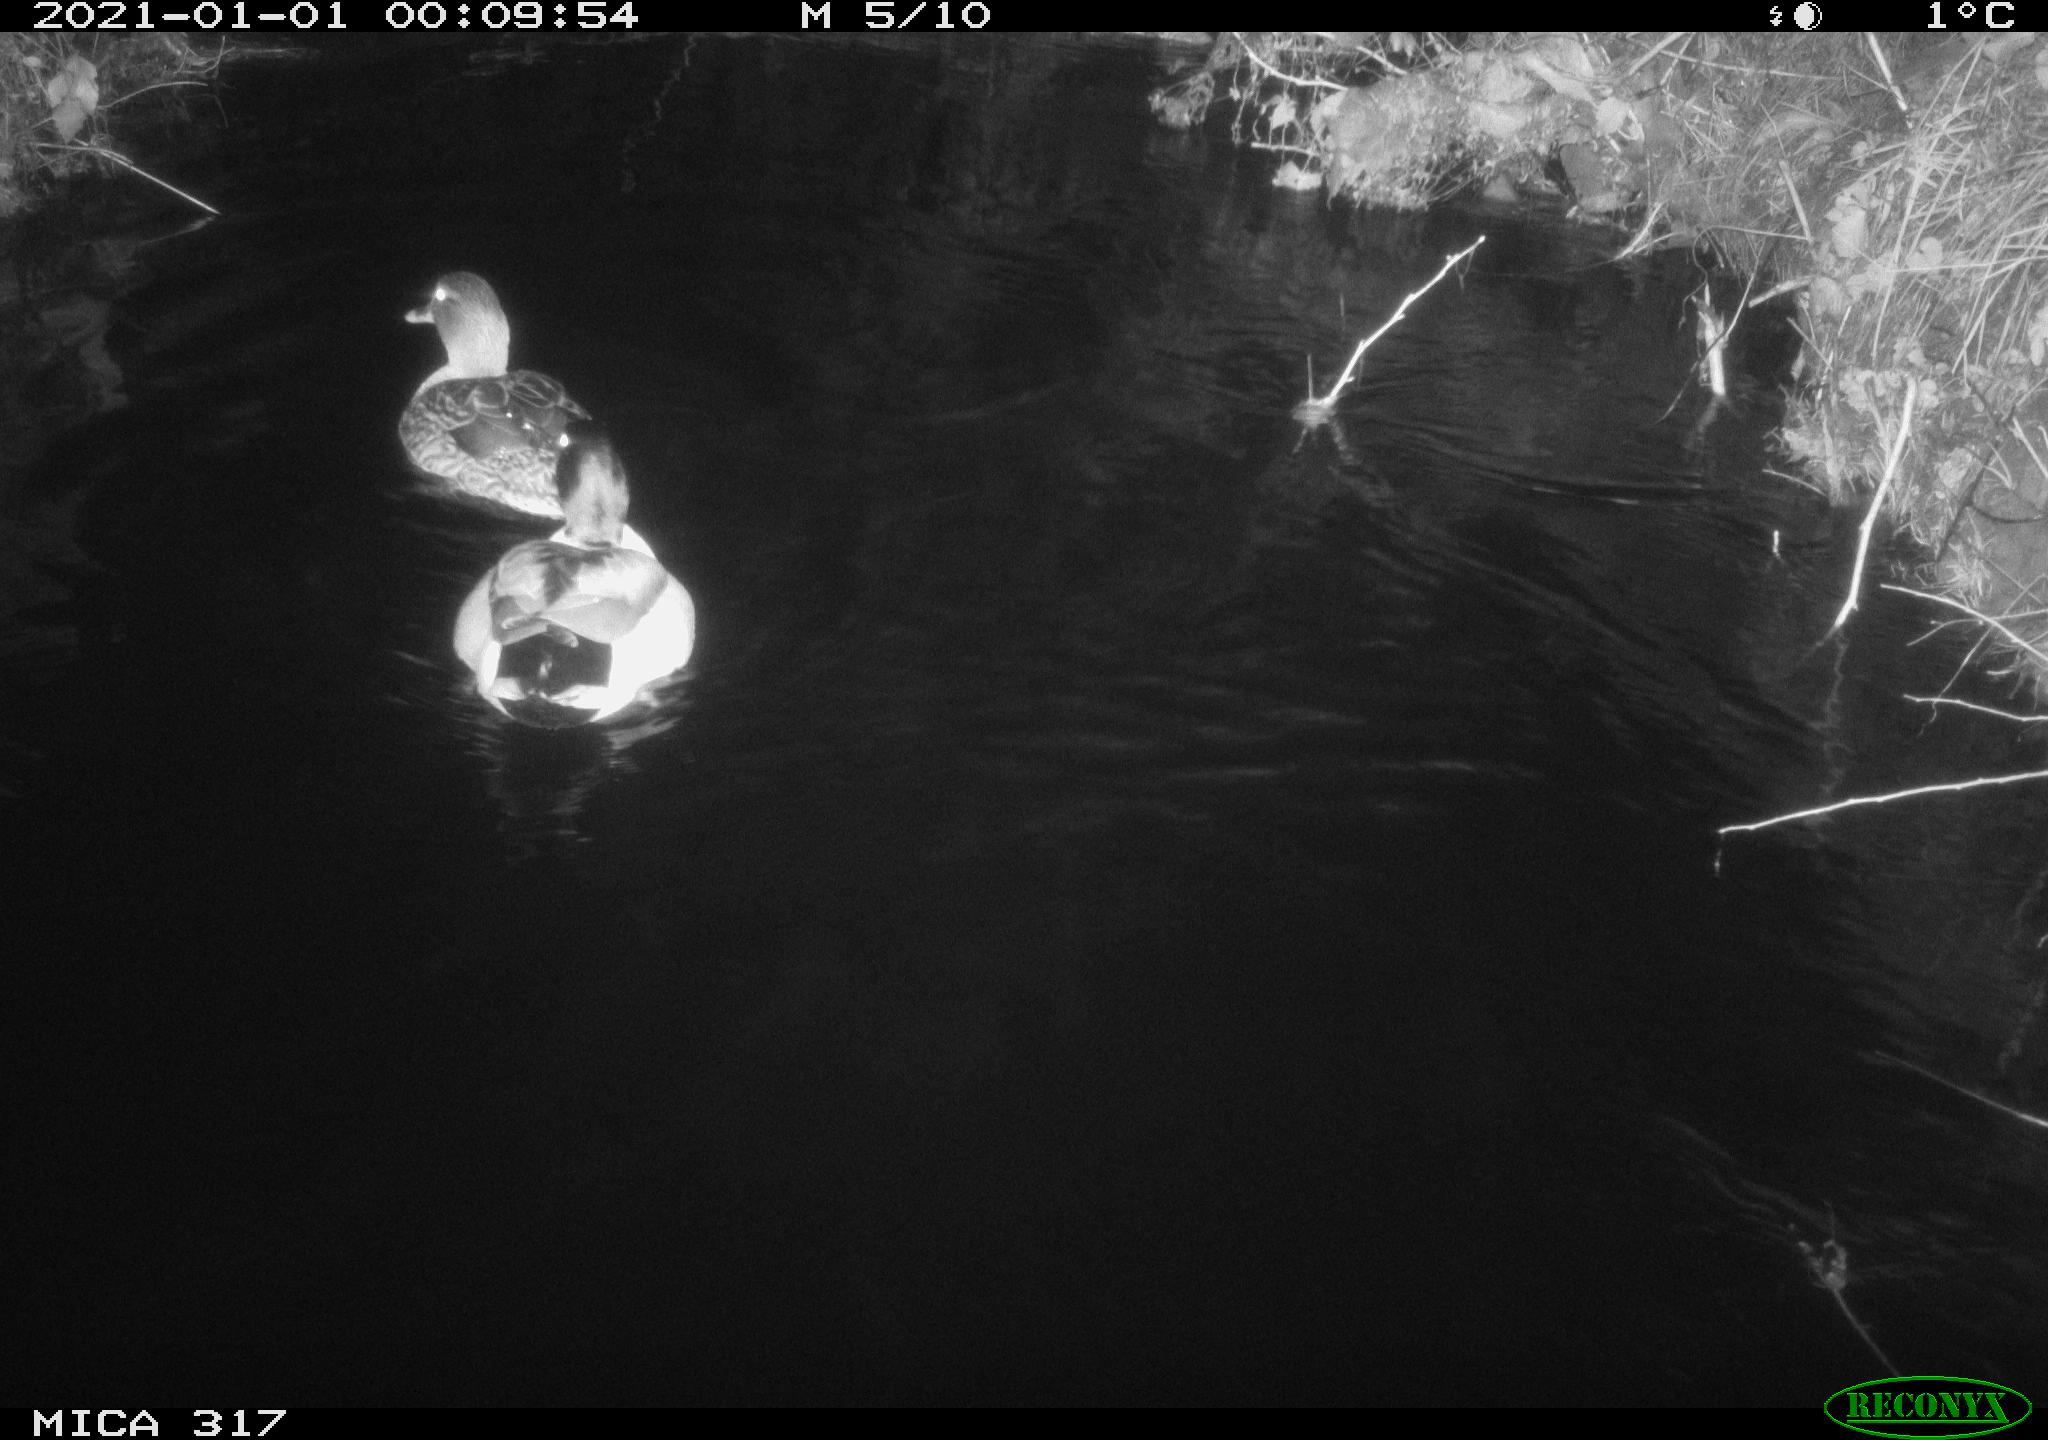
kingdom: Animalia
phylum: Chordata
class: Aves
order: Anseriformes
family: Anatidae
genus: Anas
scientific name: Anas platyrhynchos
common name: Mallard
